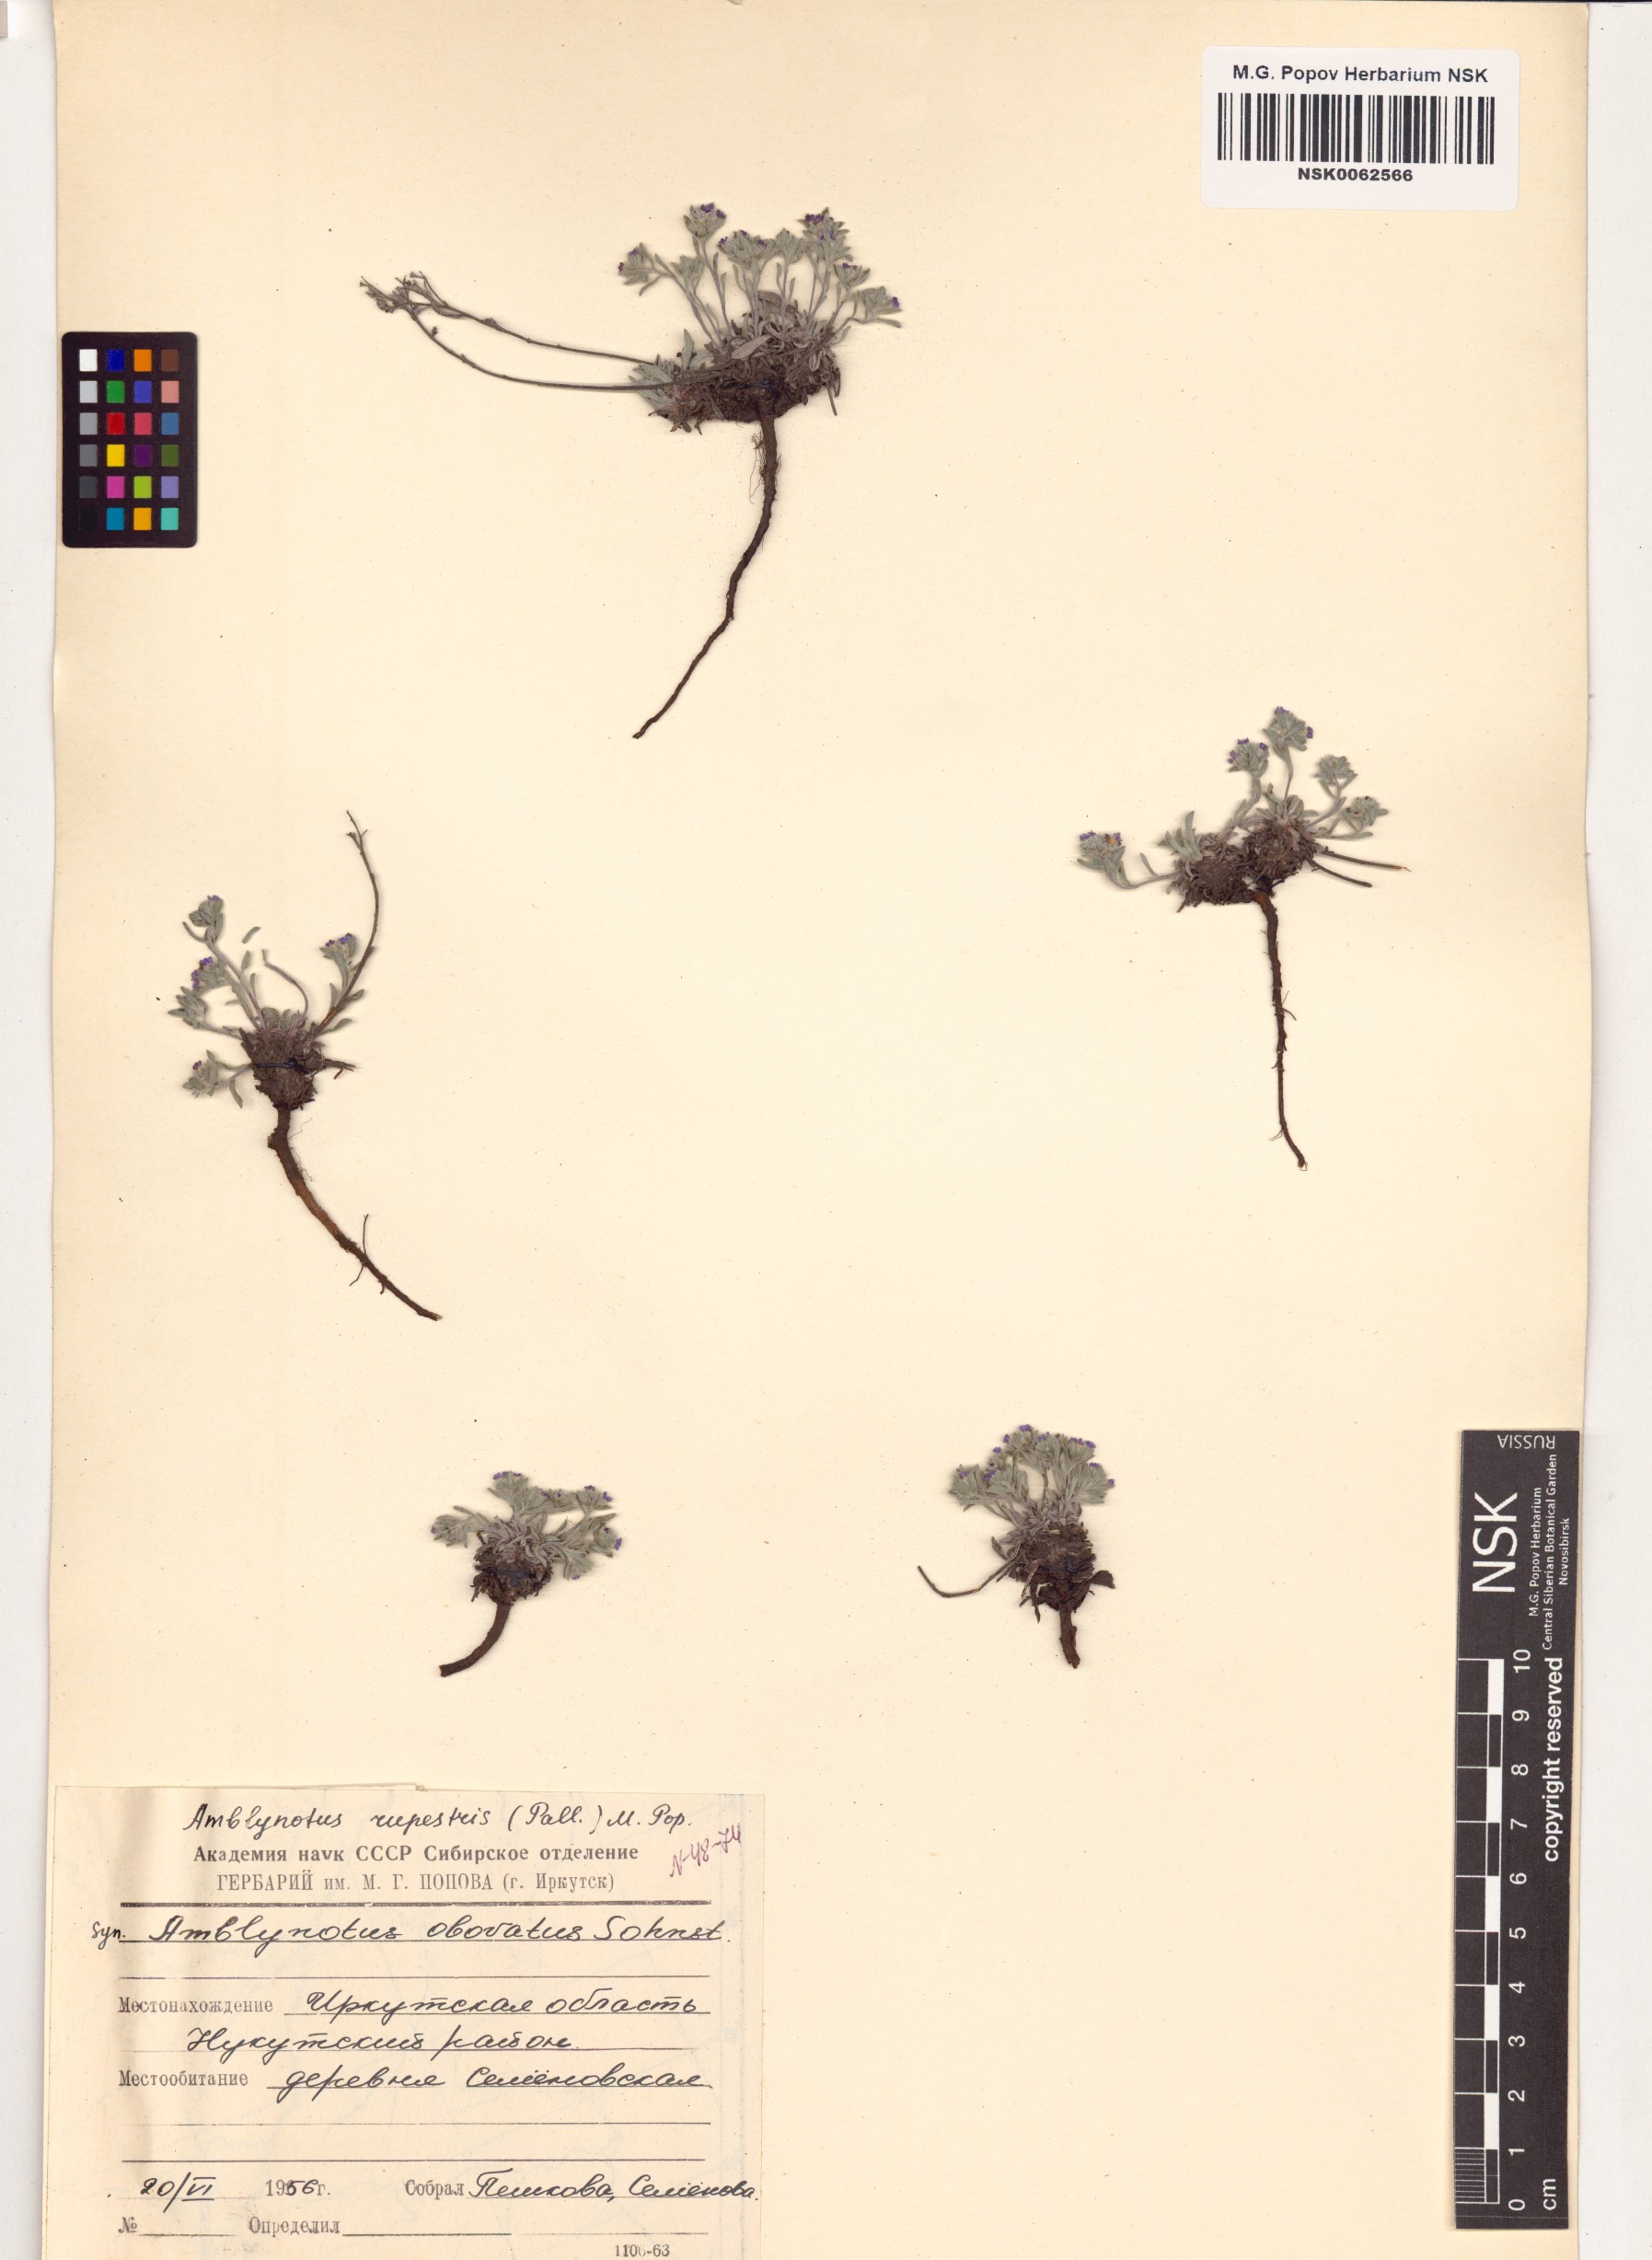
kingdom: Plantae
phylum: Tracheophyta
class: Magnoliopsida
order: Boraginales
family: Boraginaceae
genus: Eritrichium
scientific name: Eritrichium rupestre
